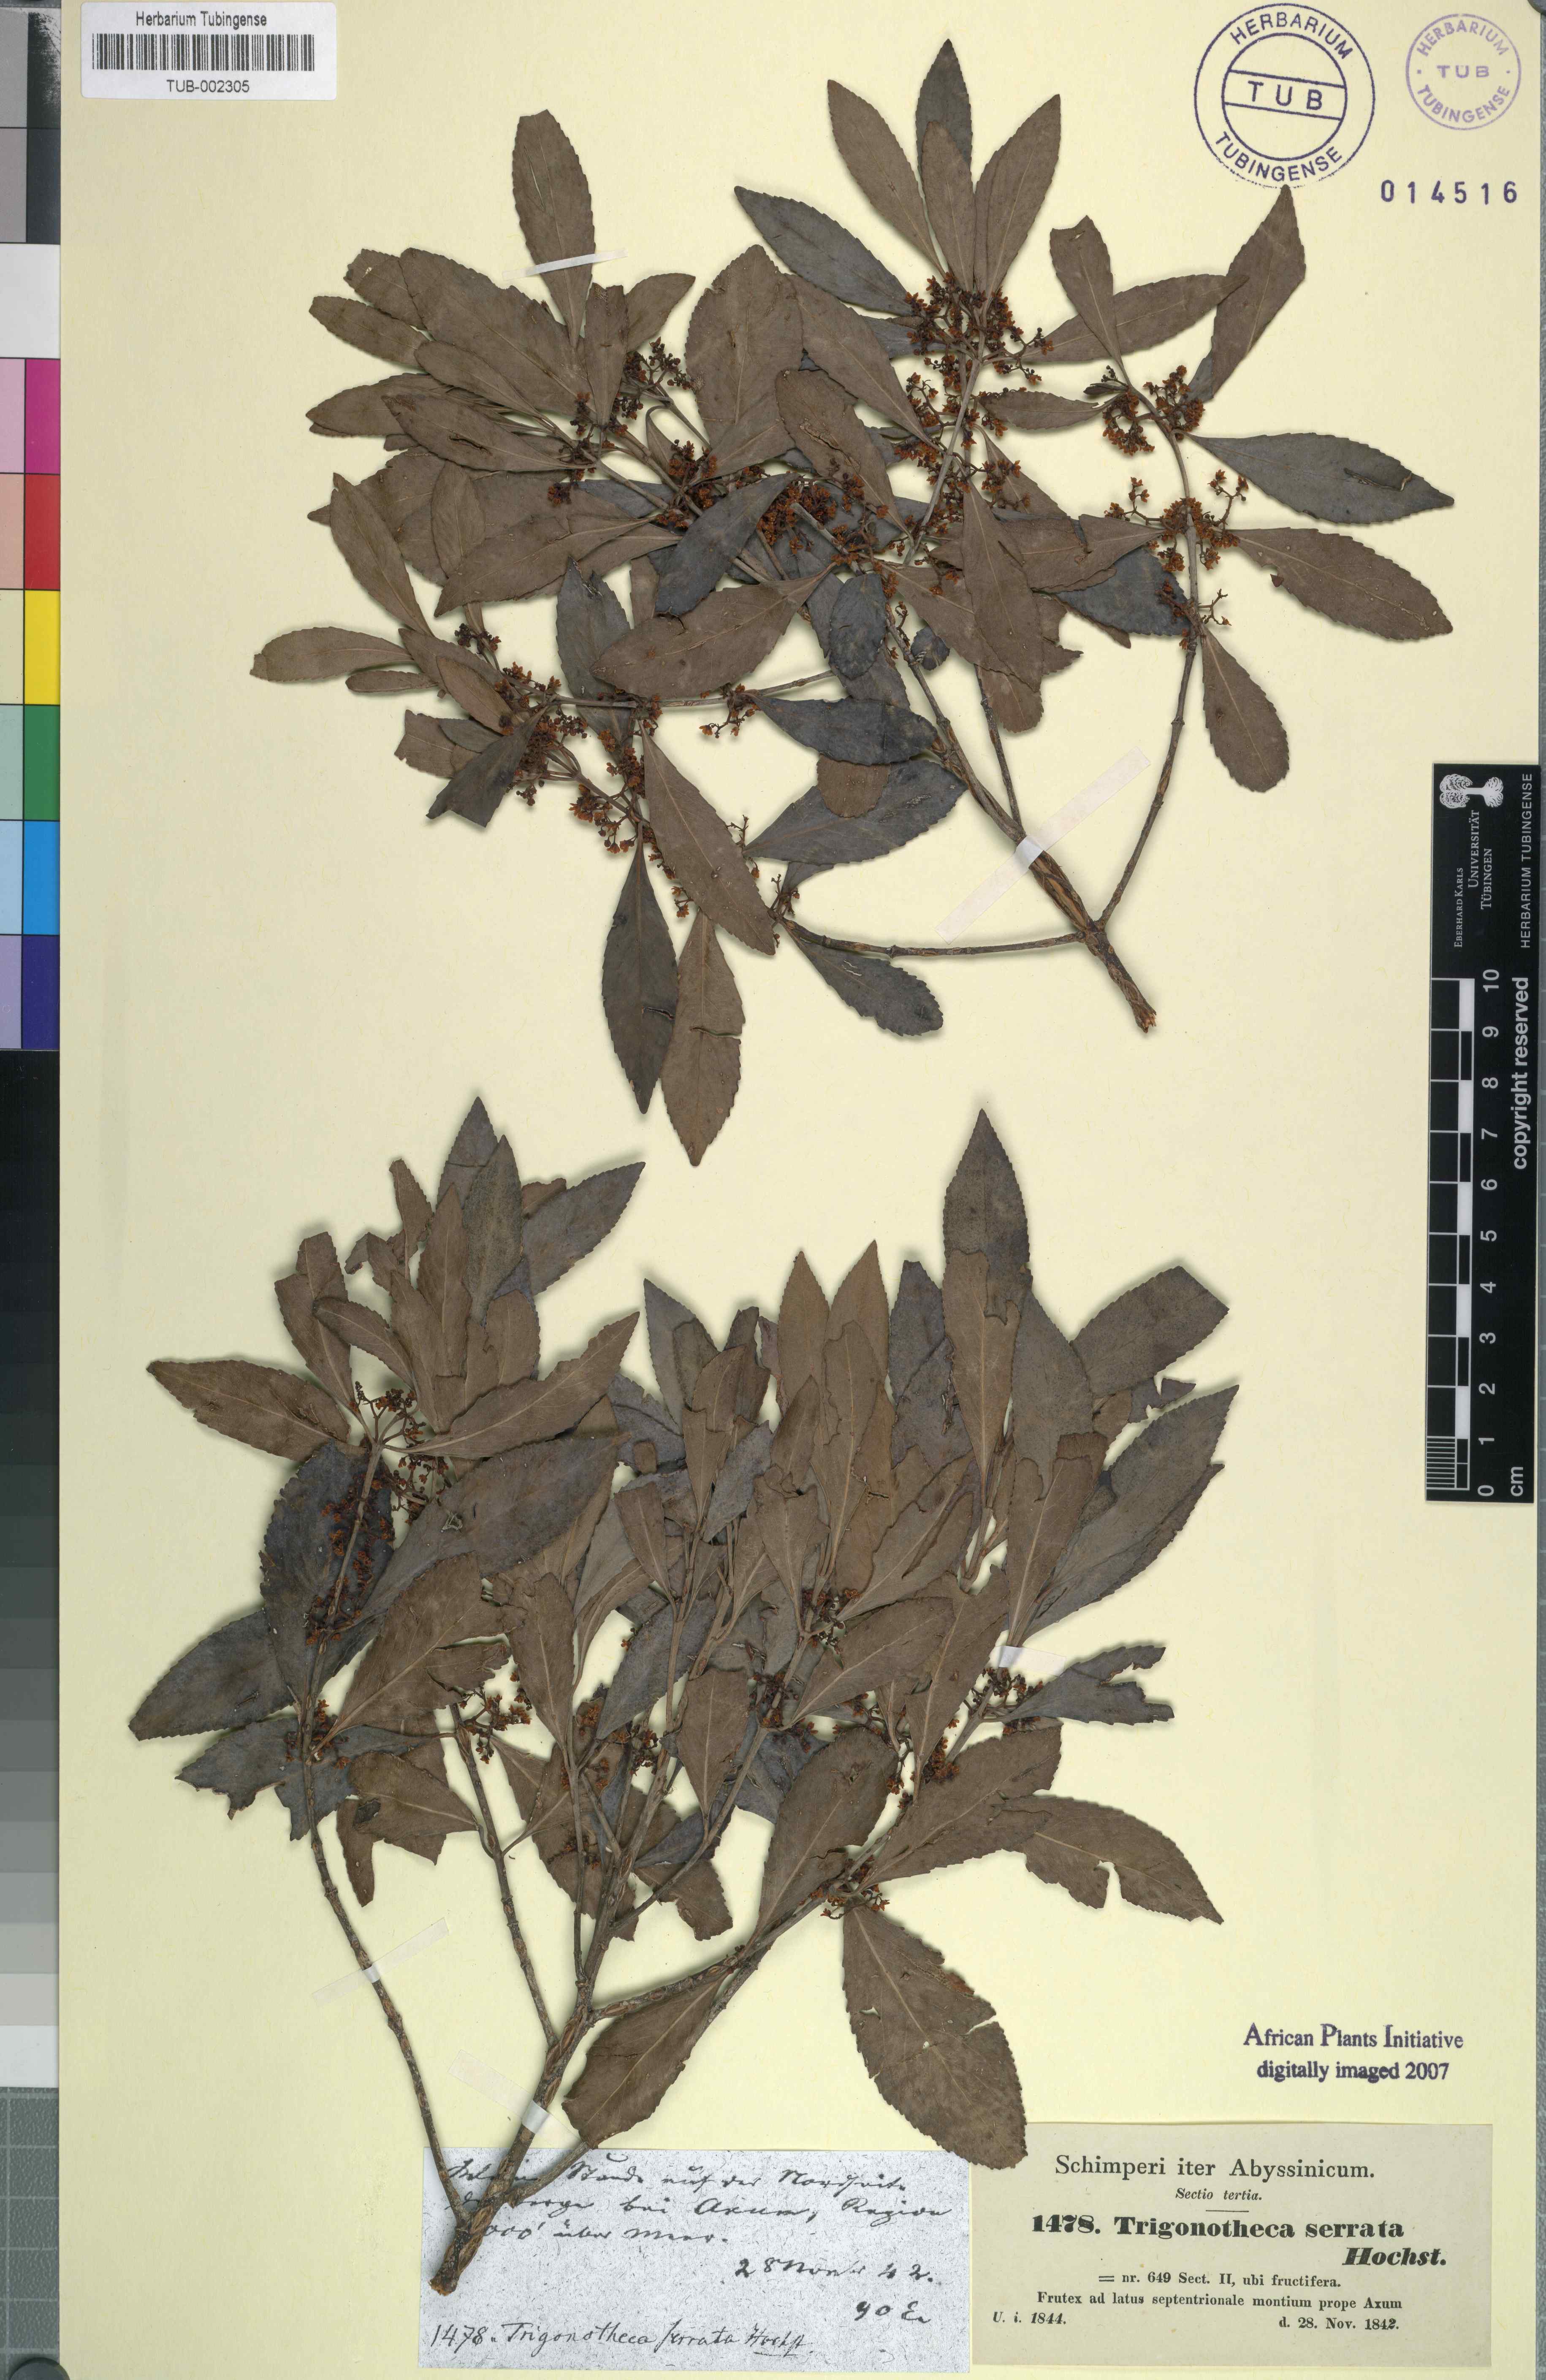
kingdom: Plantae
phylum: Tracheophyta
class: Magnoliopsida
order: Celastrales
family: Celastraceae
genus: Catha
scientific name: Catha edulis
